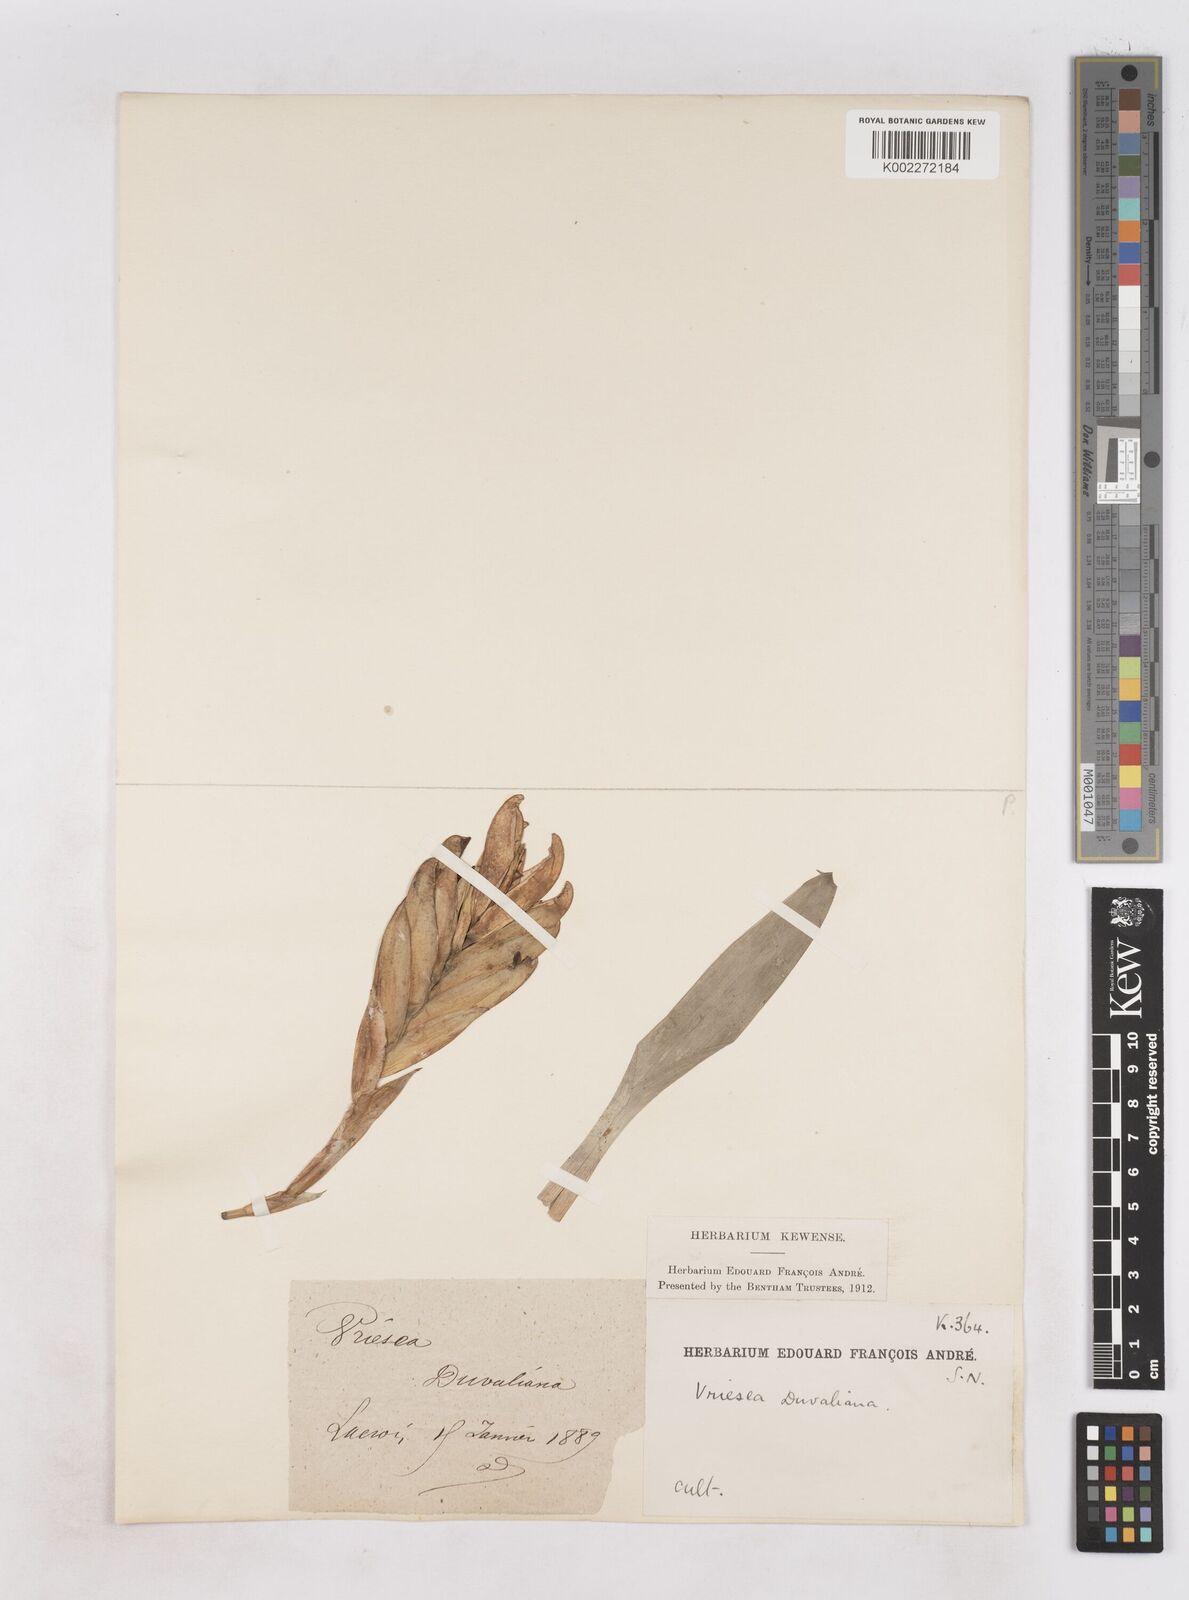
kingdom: Plantae
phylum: Tracheophyta
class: Liliopsida
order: Poales
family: Bromeliaceae
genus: Vriesea
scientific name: Vriesea duvaliana
